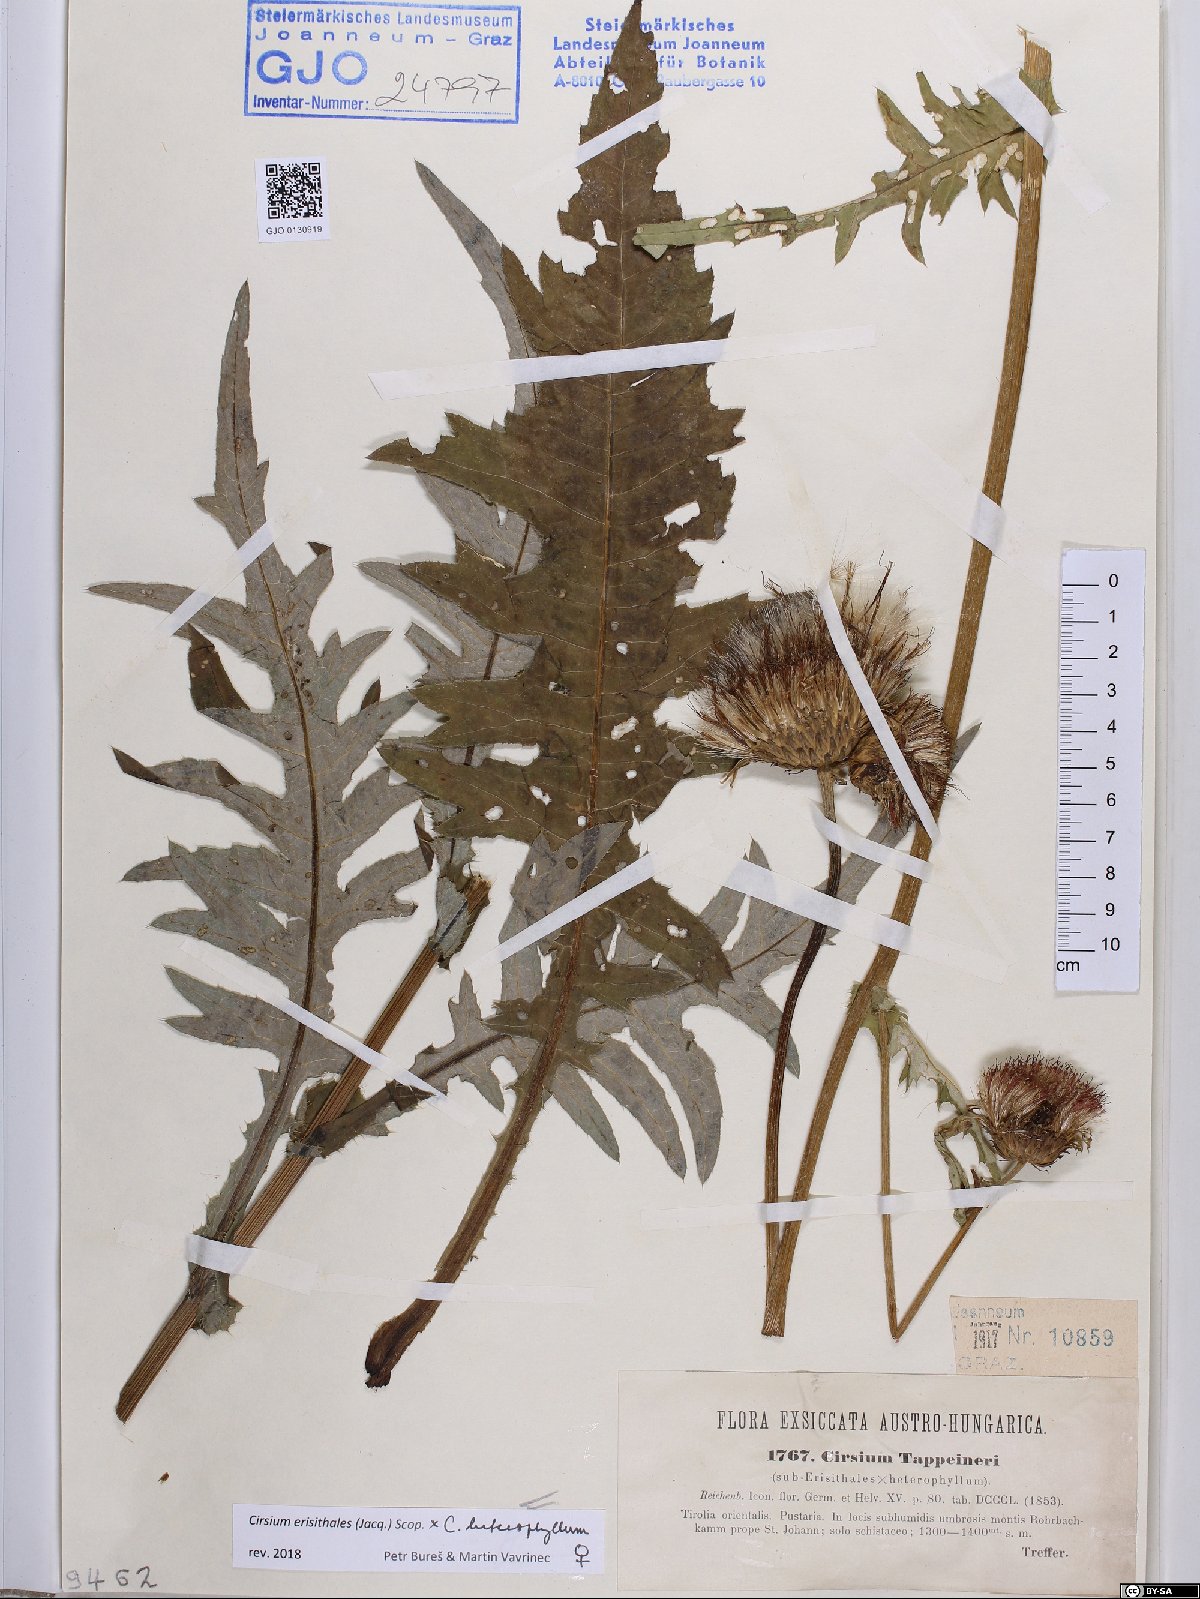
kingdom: Plantae
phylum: Tracheophyta
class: Magnoliopsida
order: Asterales
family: Asteraceae
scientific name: Asteraceae
